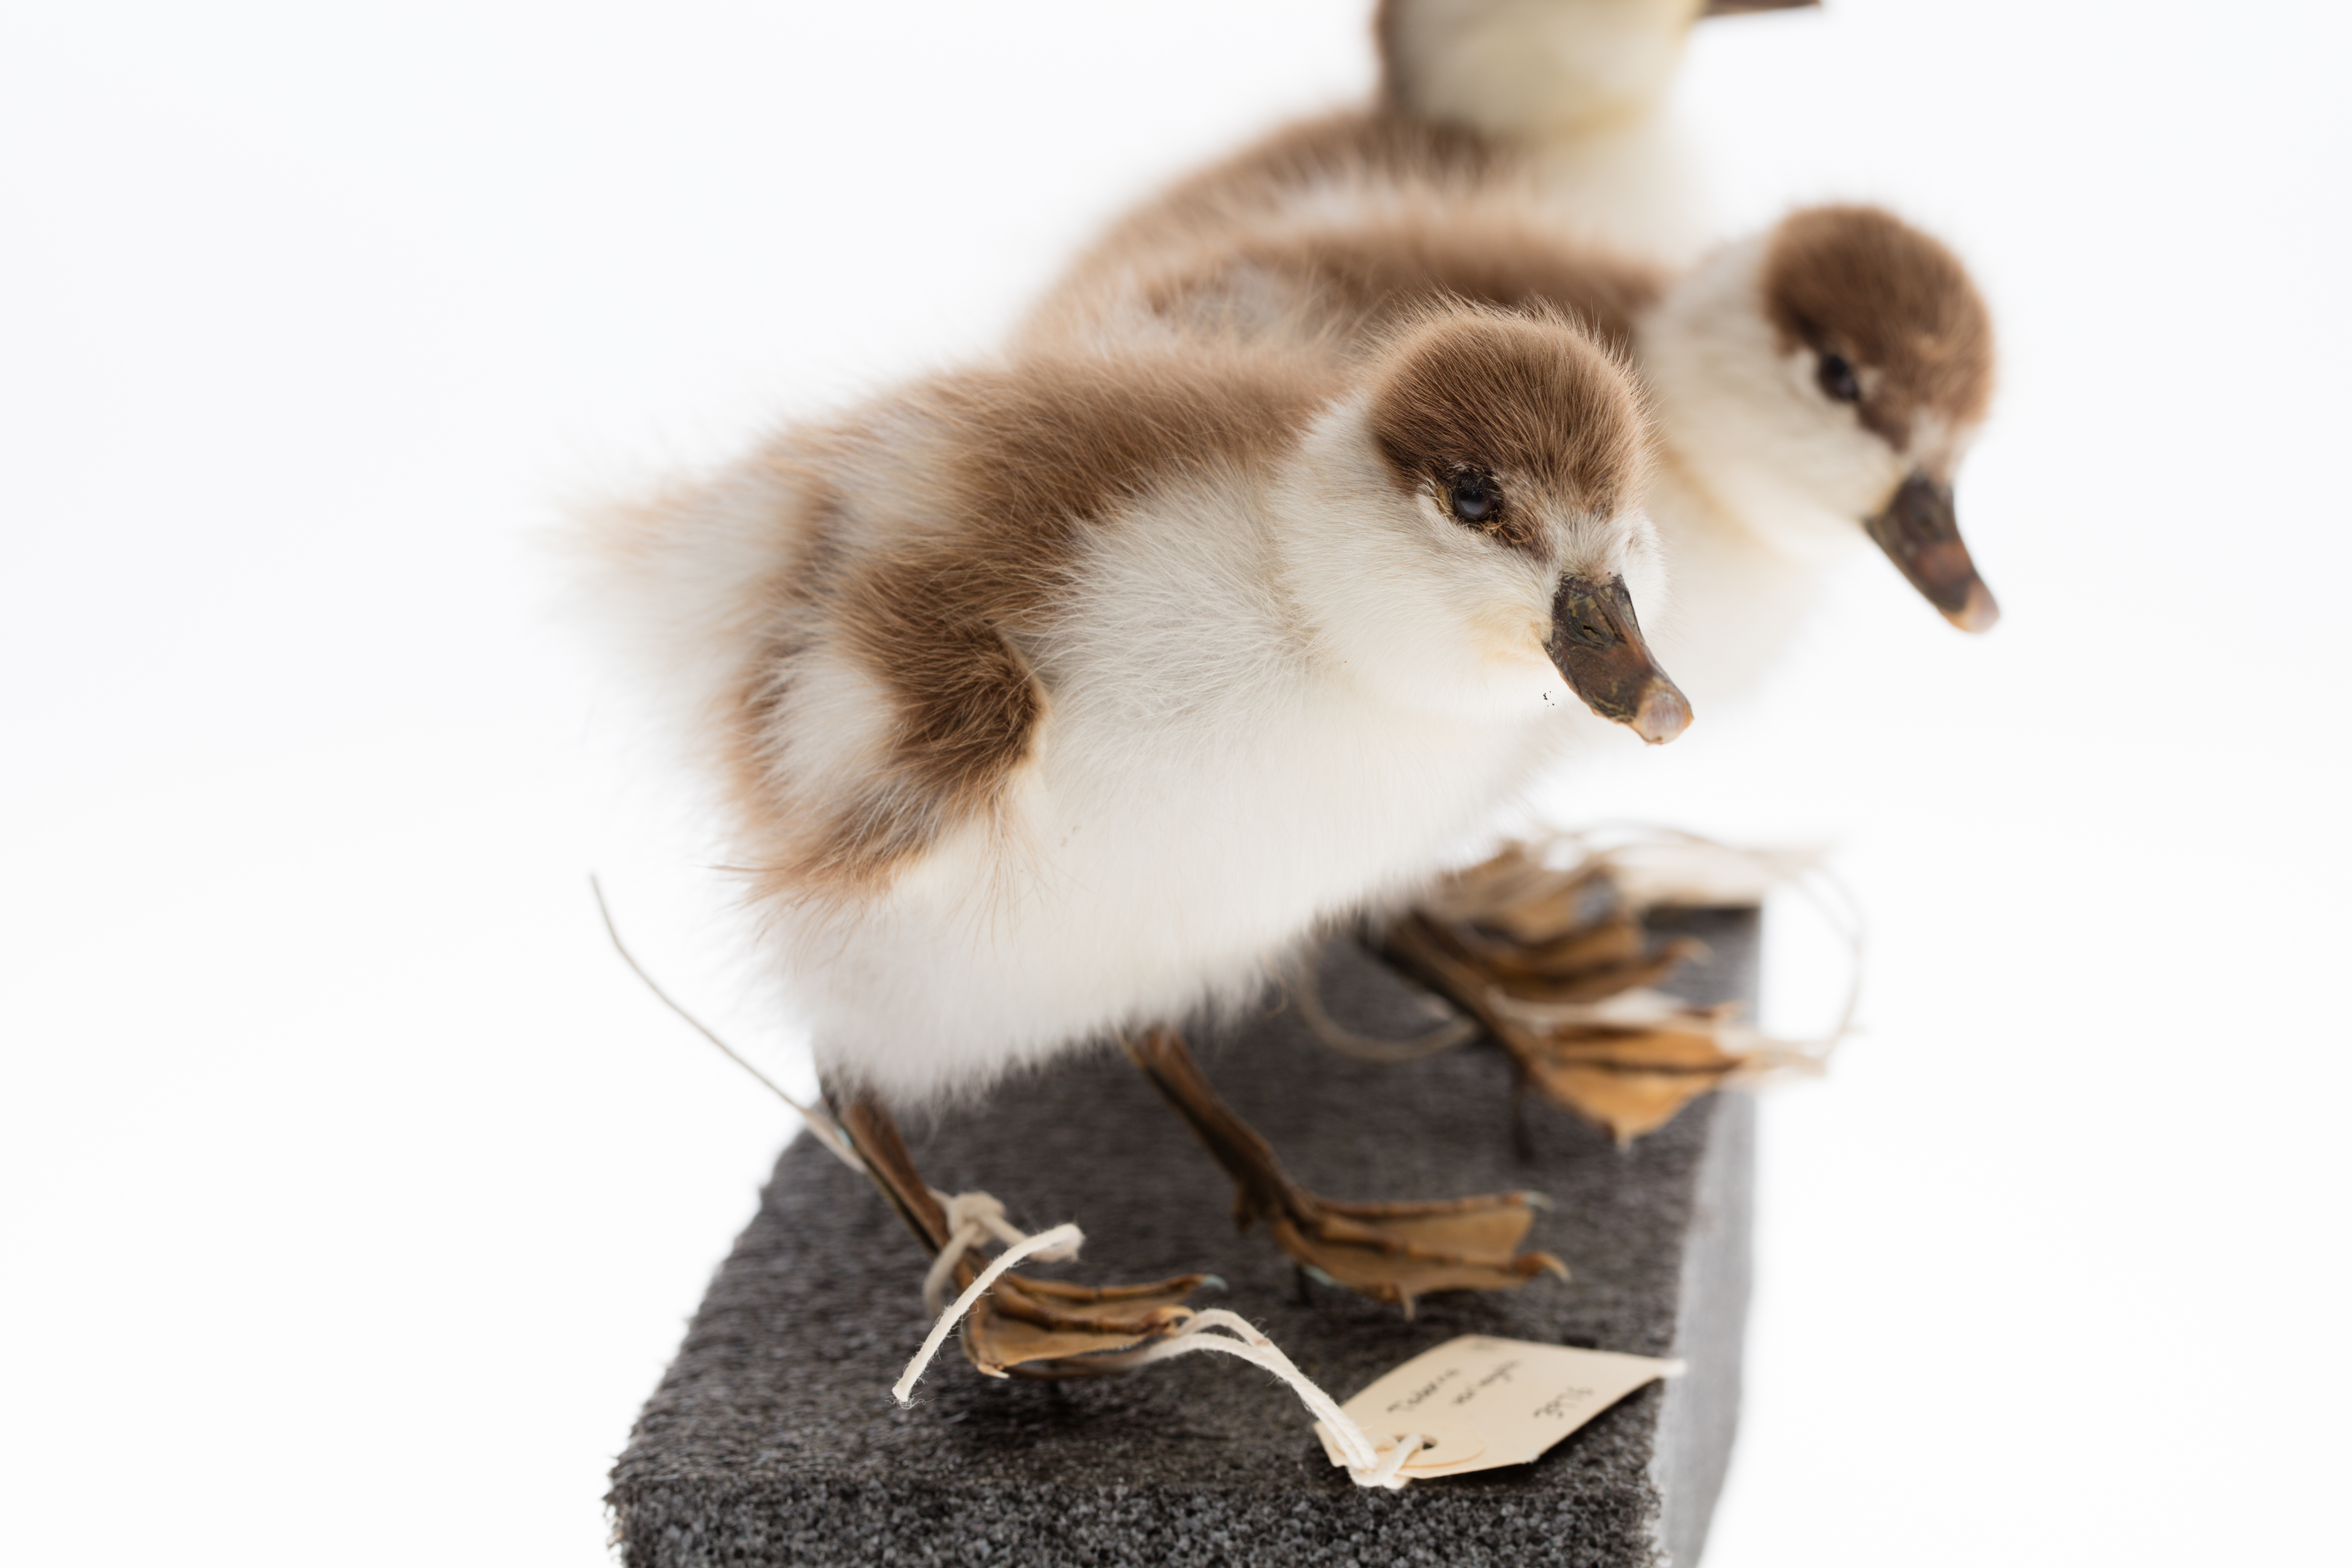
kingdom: Animalia
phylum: Chordata
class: Aves
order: Anseriformes
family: Anatidae
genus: Tadorna
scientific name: Tadorna variegata
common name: Paradise shelduck
